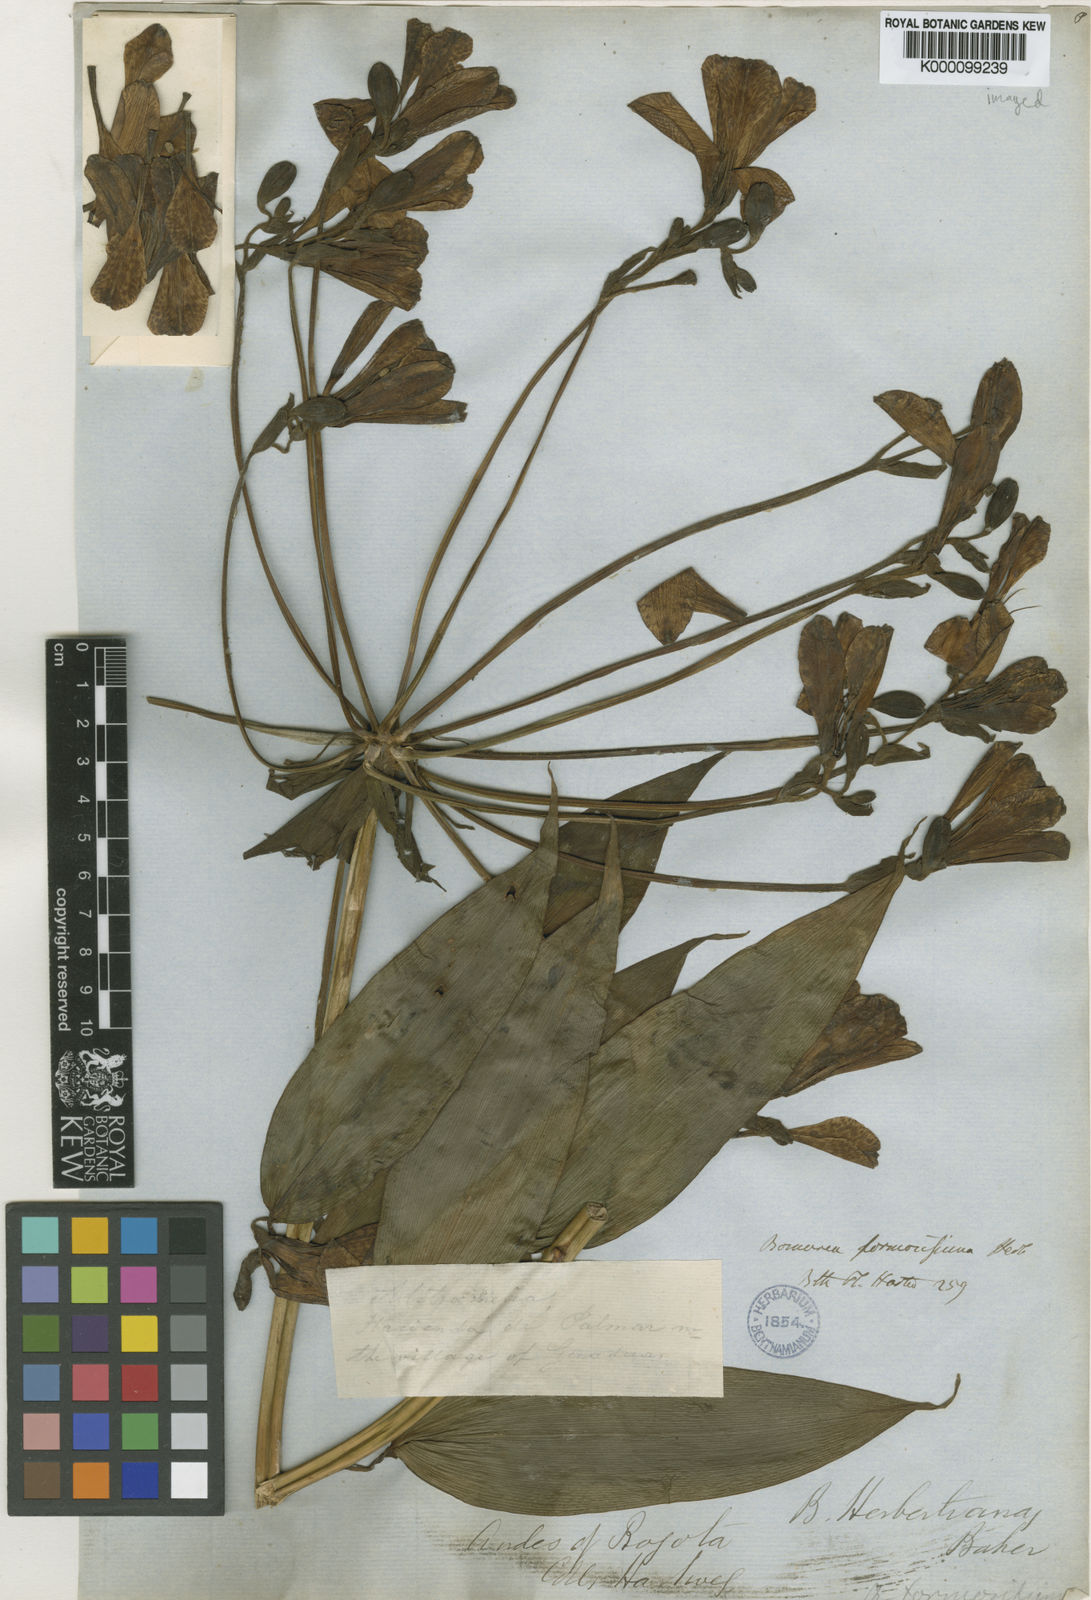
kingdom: Plantae
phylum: Tracheophyta
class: Liliopsida
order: Liliales
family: Alstroemeriaceae
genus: Bomarea
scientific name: Bomarea herbertiana
